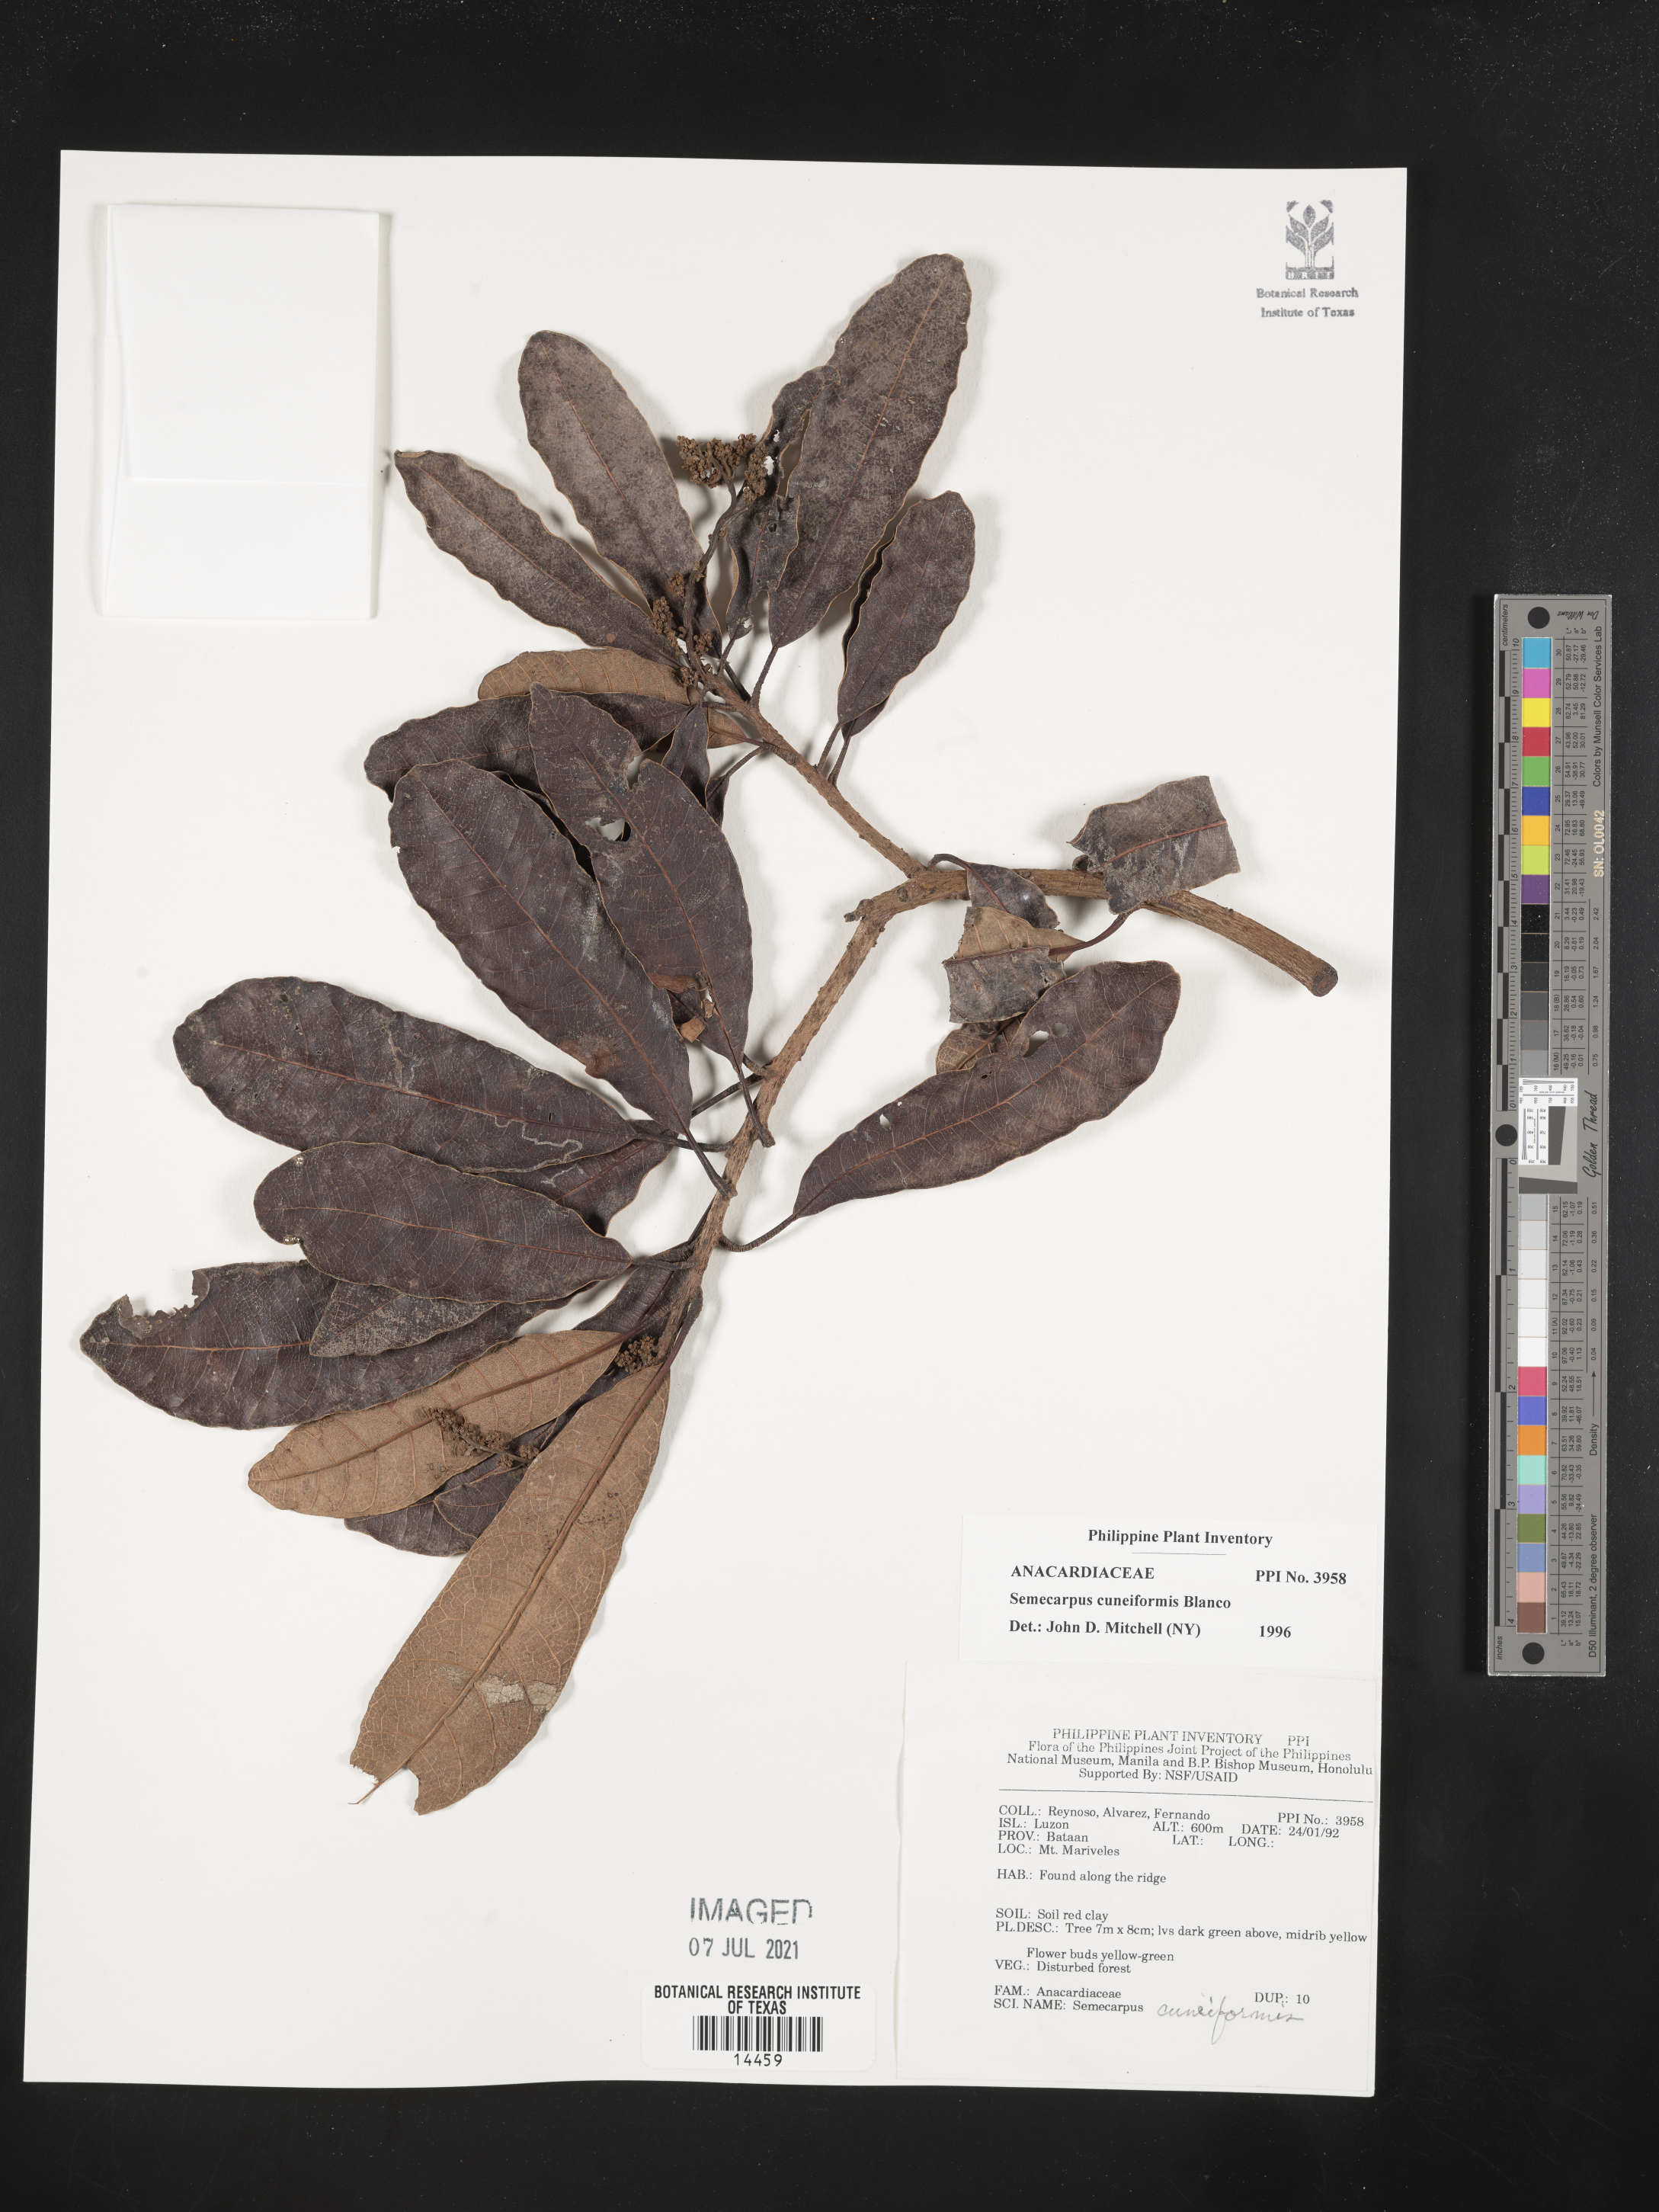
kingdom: Plantae
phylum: Tracheophyta
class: Magnoliopsida
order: Sapindales
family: Anacardiaceae
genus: Semecarpus
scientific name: Semecarpus cuneiformis
